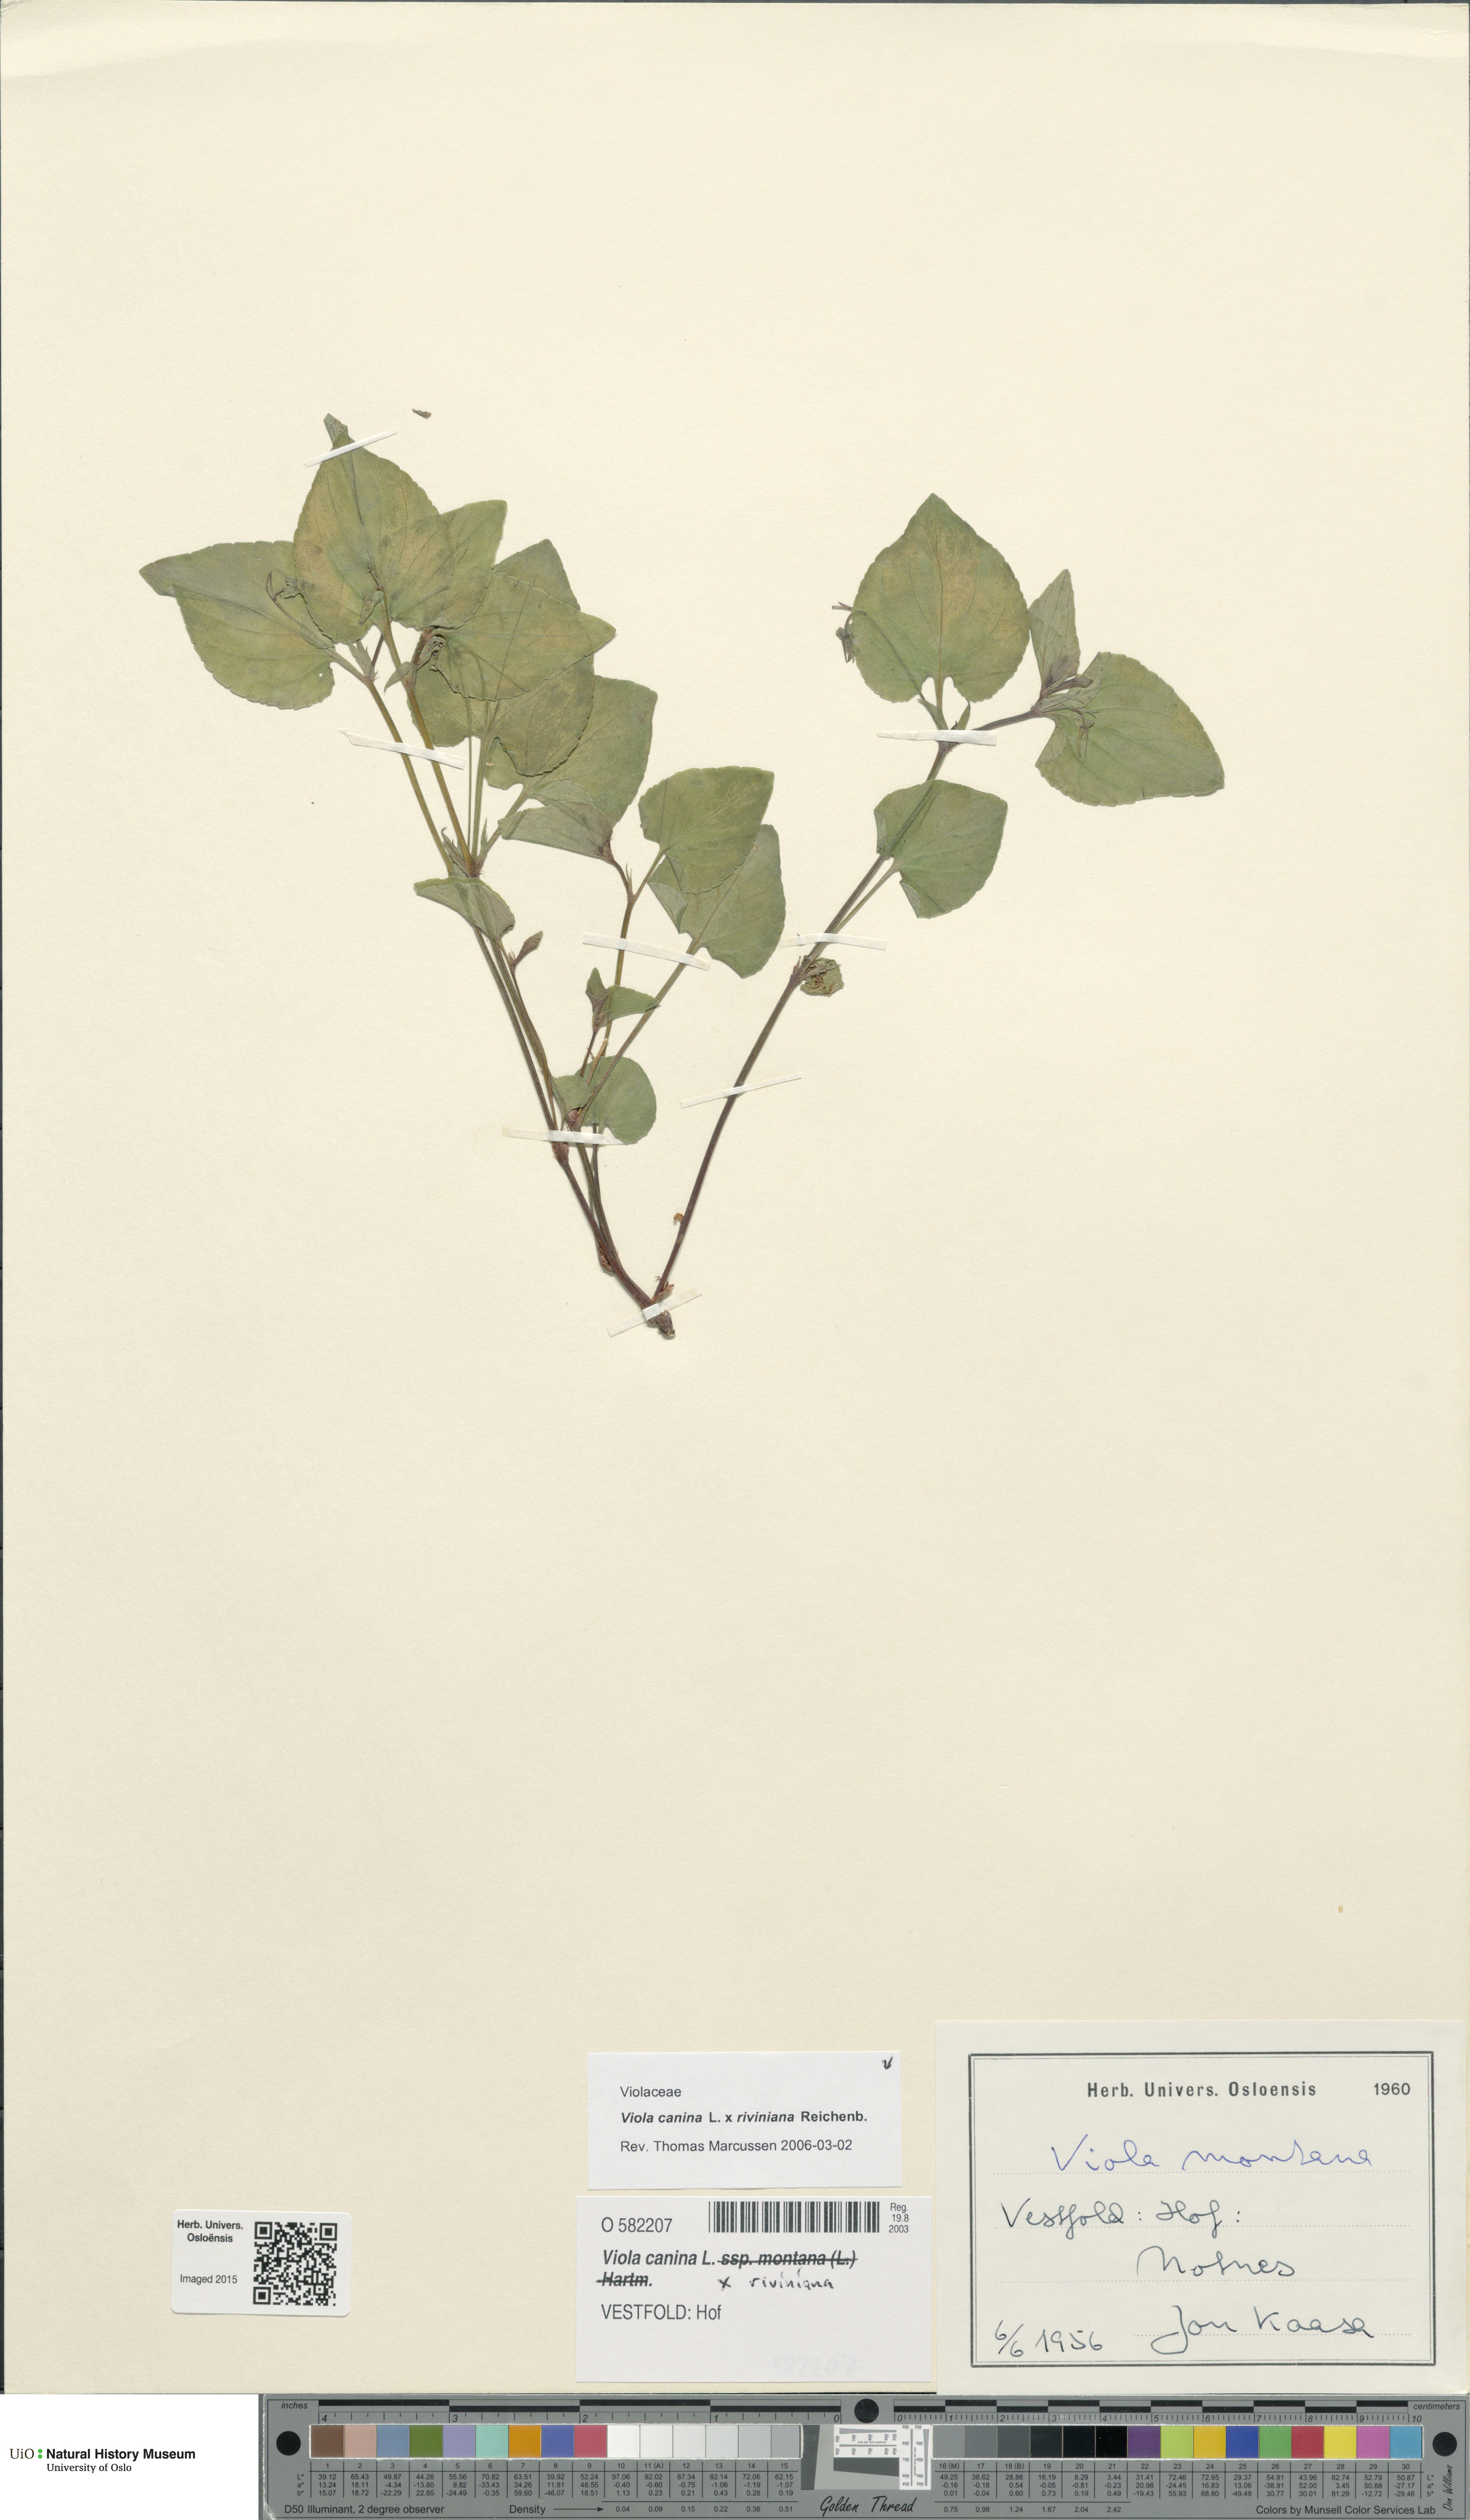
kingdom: Plantae
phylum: Tracheophyta
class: Magnoliopsida
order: Malpighiales
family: Violaceae
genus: Viola
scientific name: Viola
